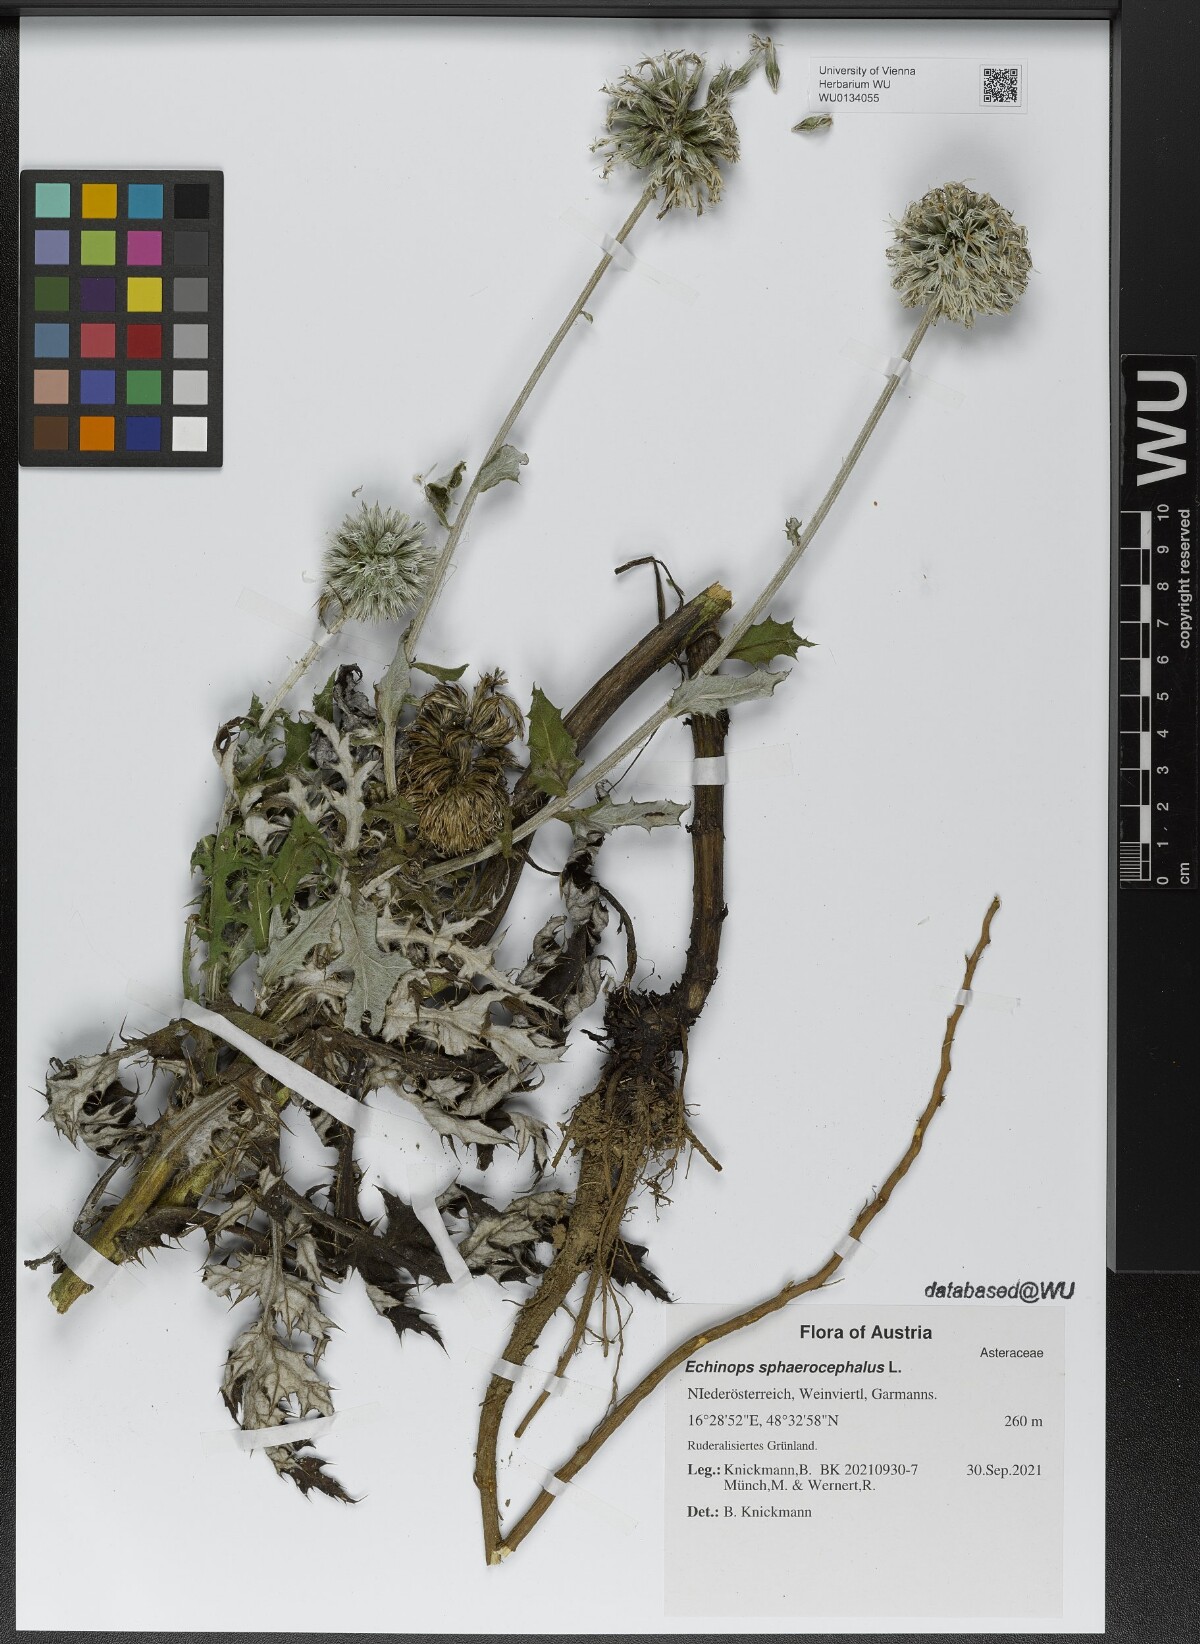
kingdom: Plantae
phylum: Tracheophyta
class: Magnoliopsida
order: Asterales
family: Asteraceae
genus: Echinops
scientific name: Echinops sphaerocephalus
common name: Glandular globe-thistle
